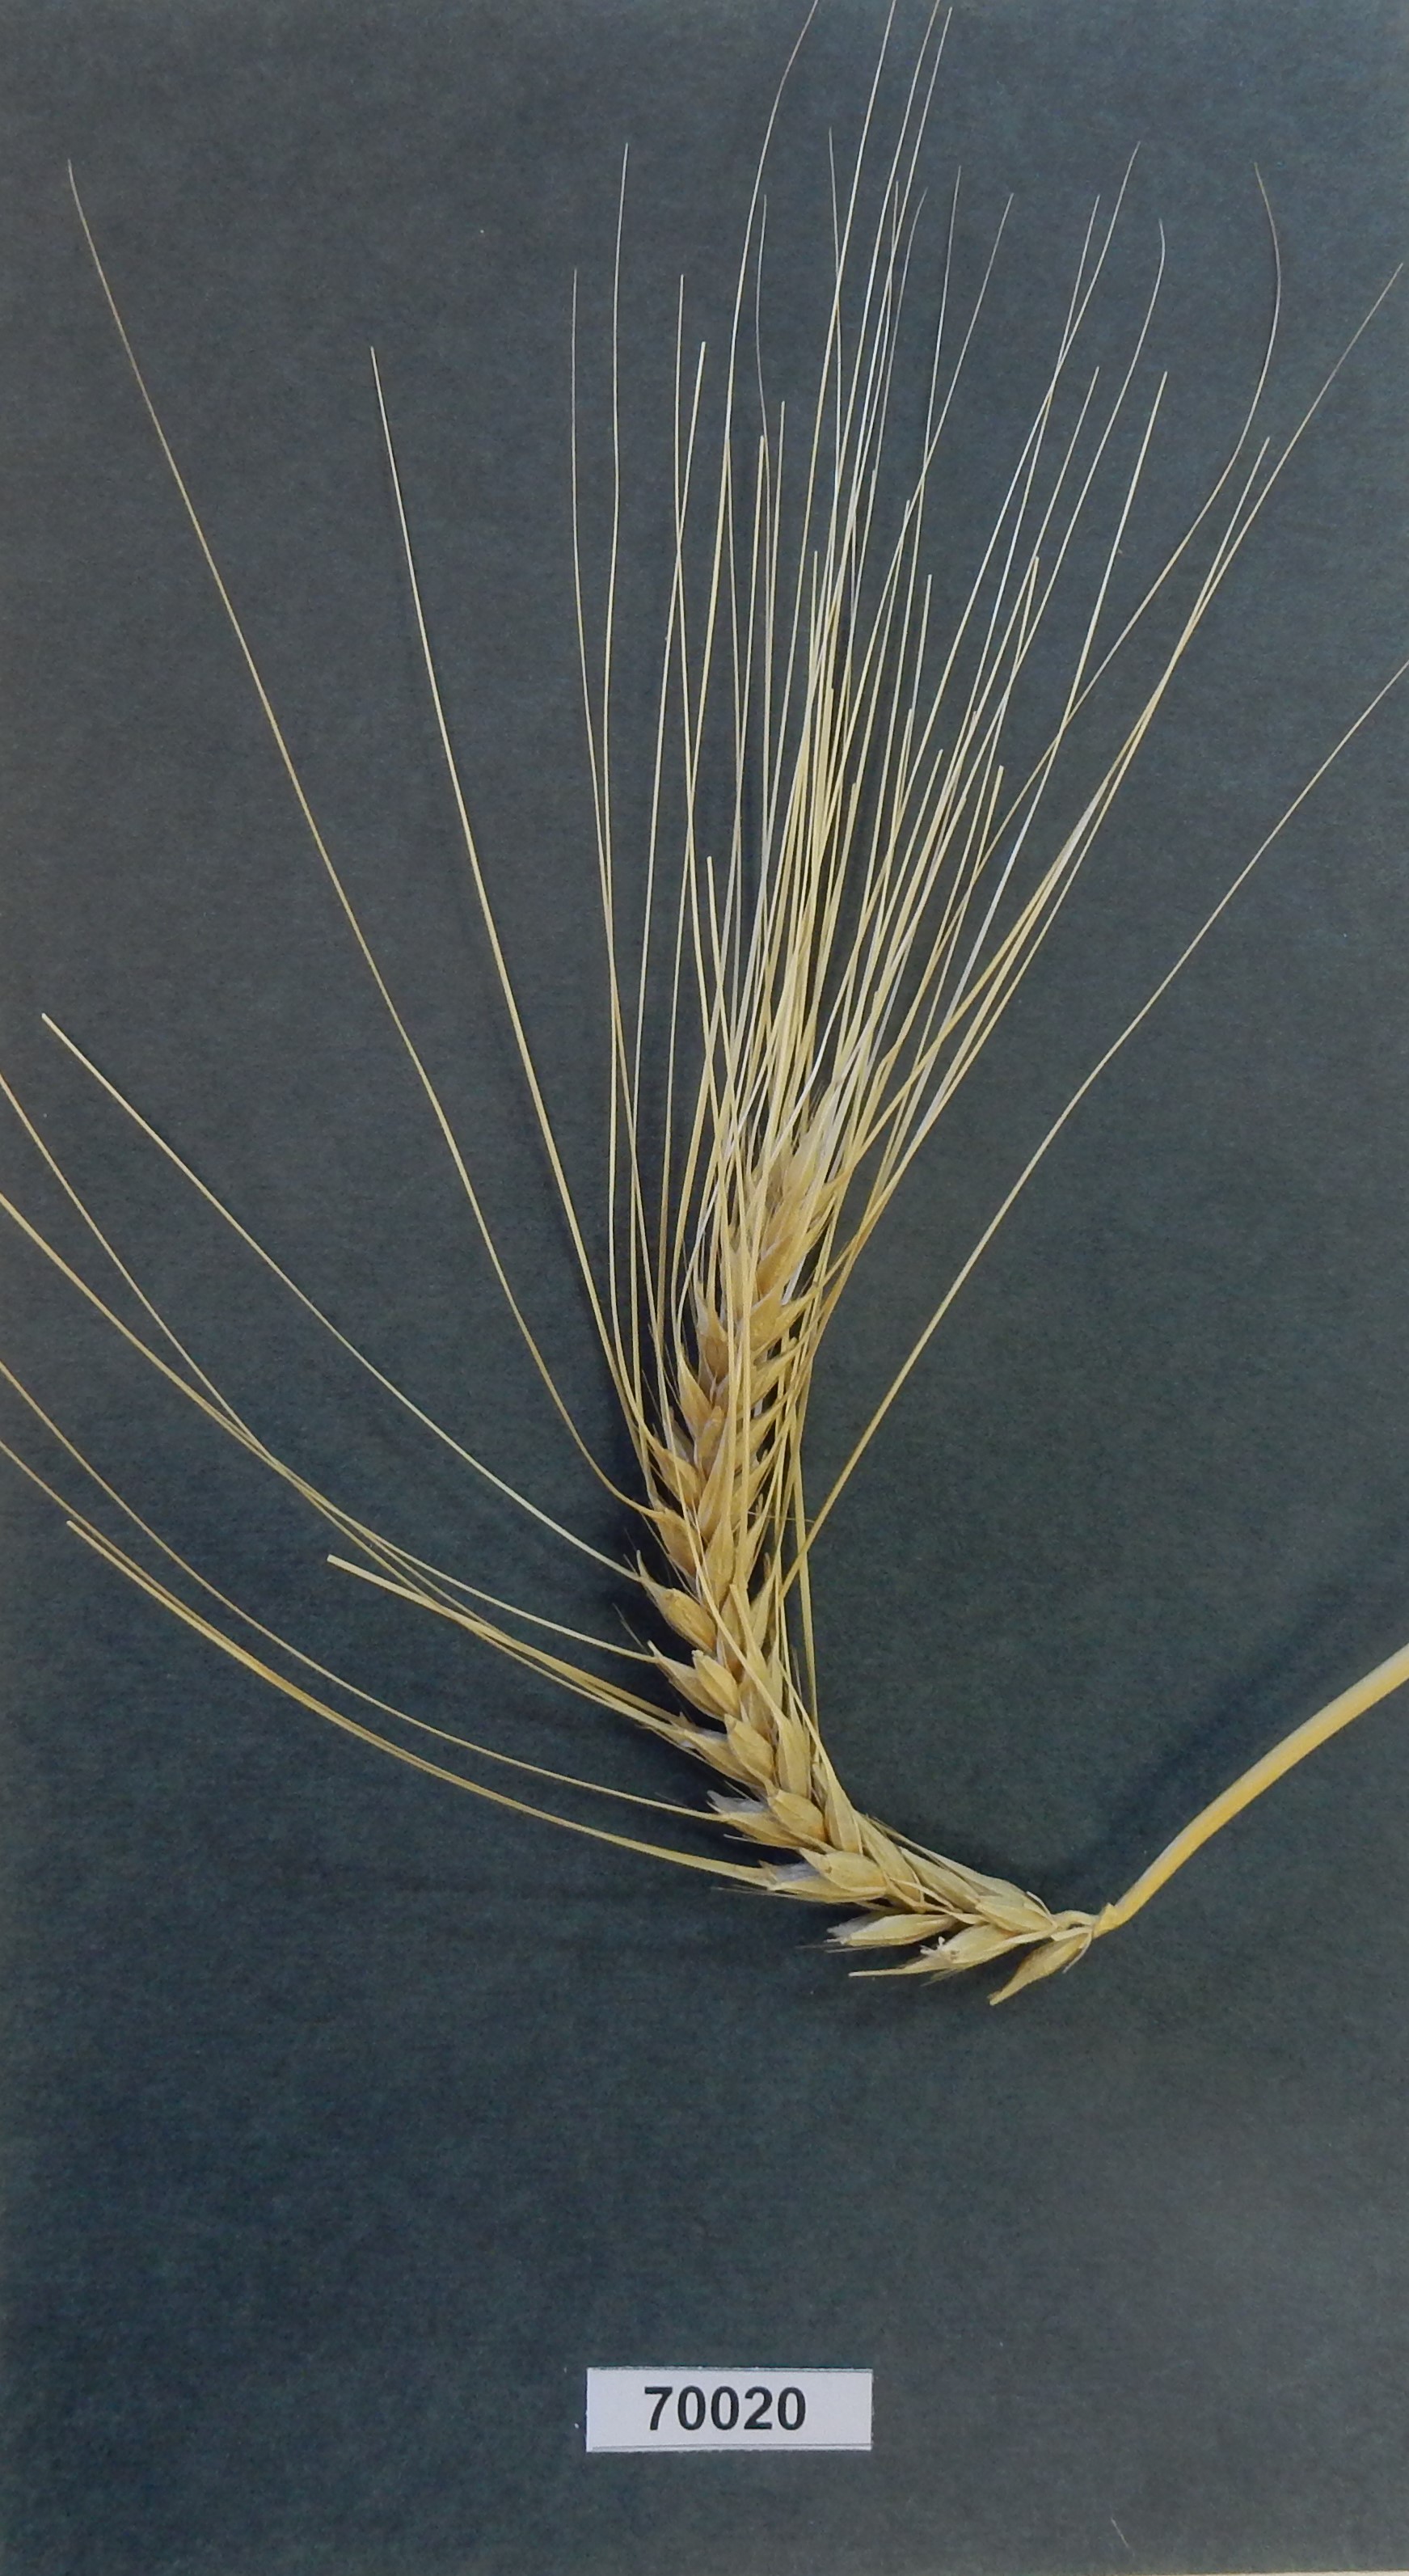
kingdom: Plantae
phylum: Tracheophyta
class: Liliopsida
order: Poales
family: Poaceae
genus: Hordeum
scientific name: Hordeum
